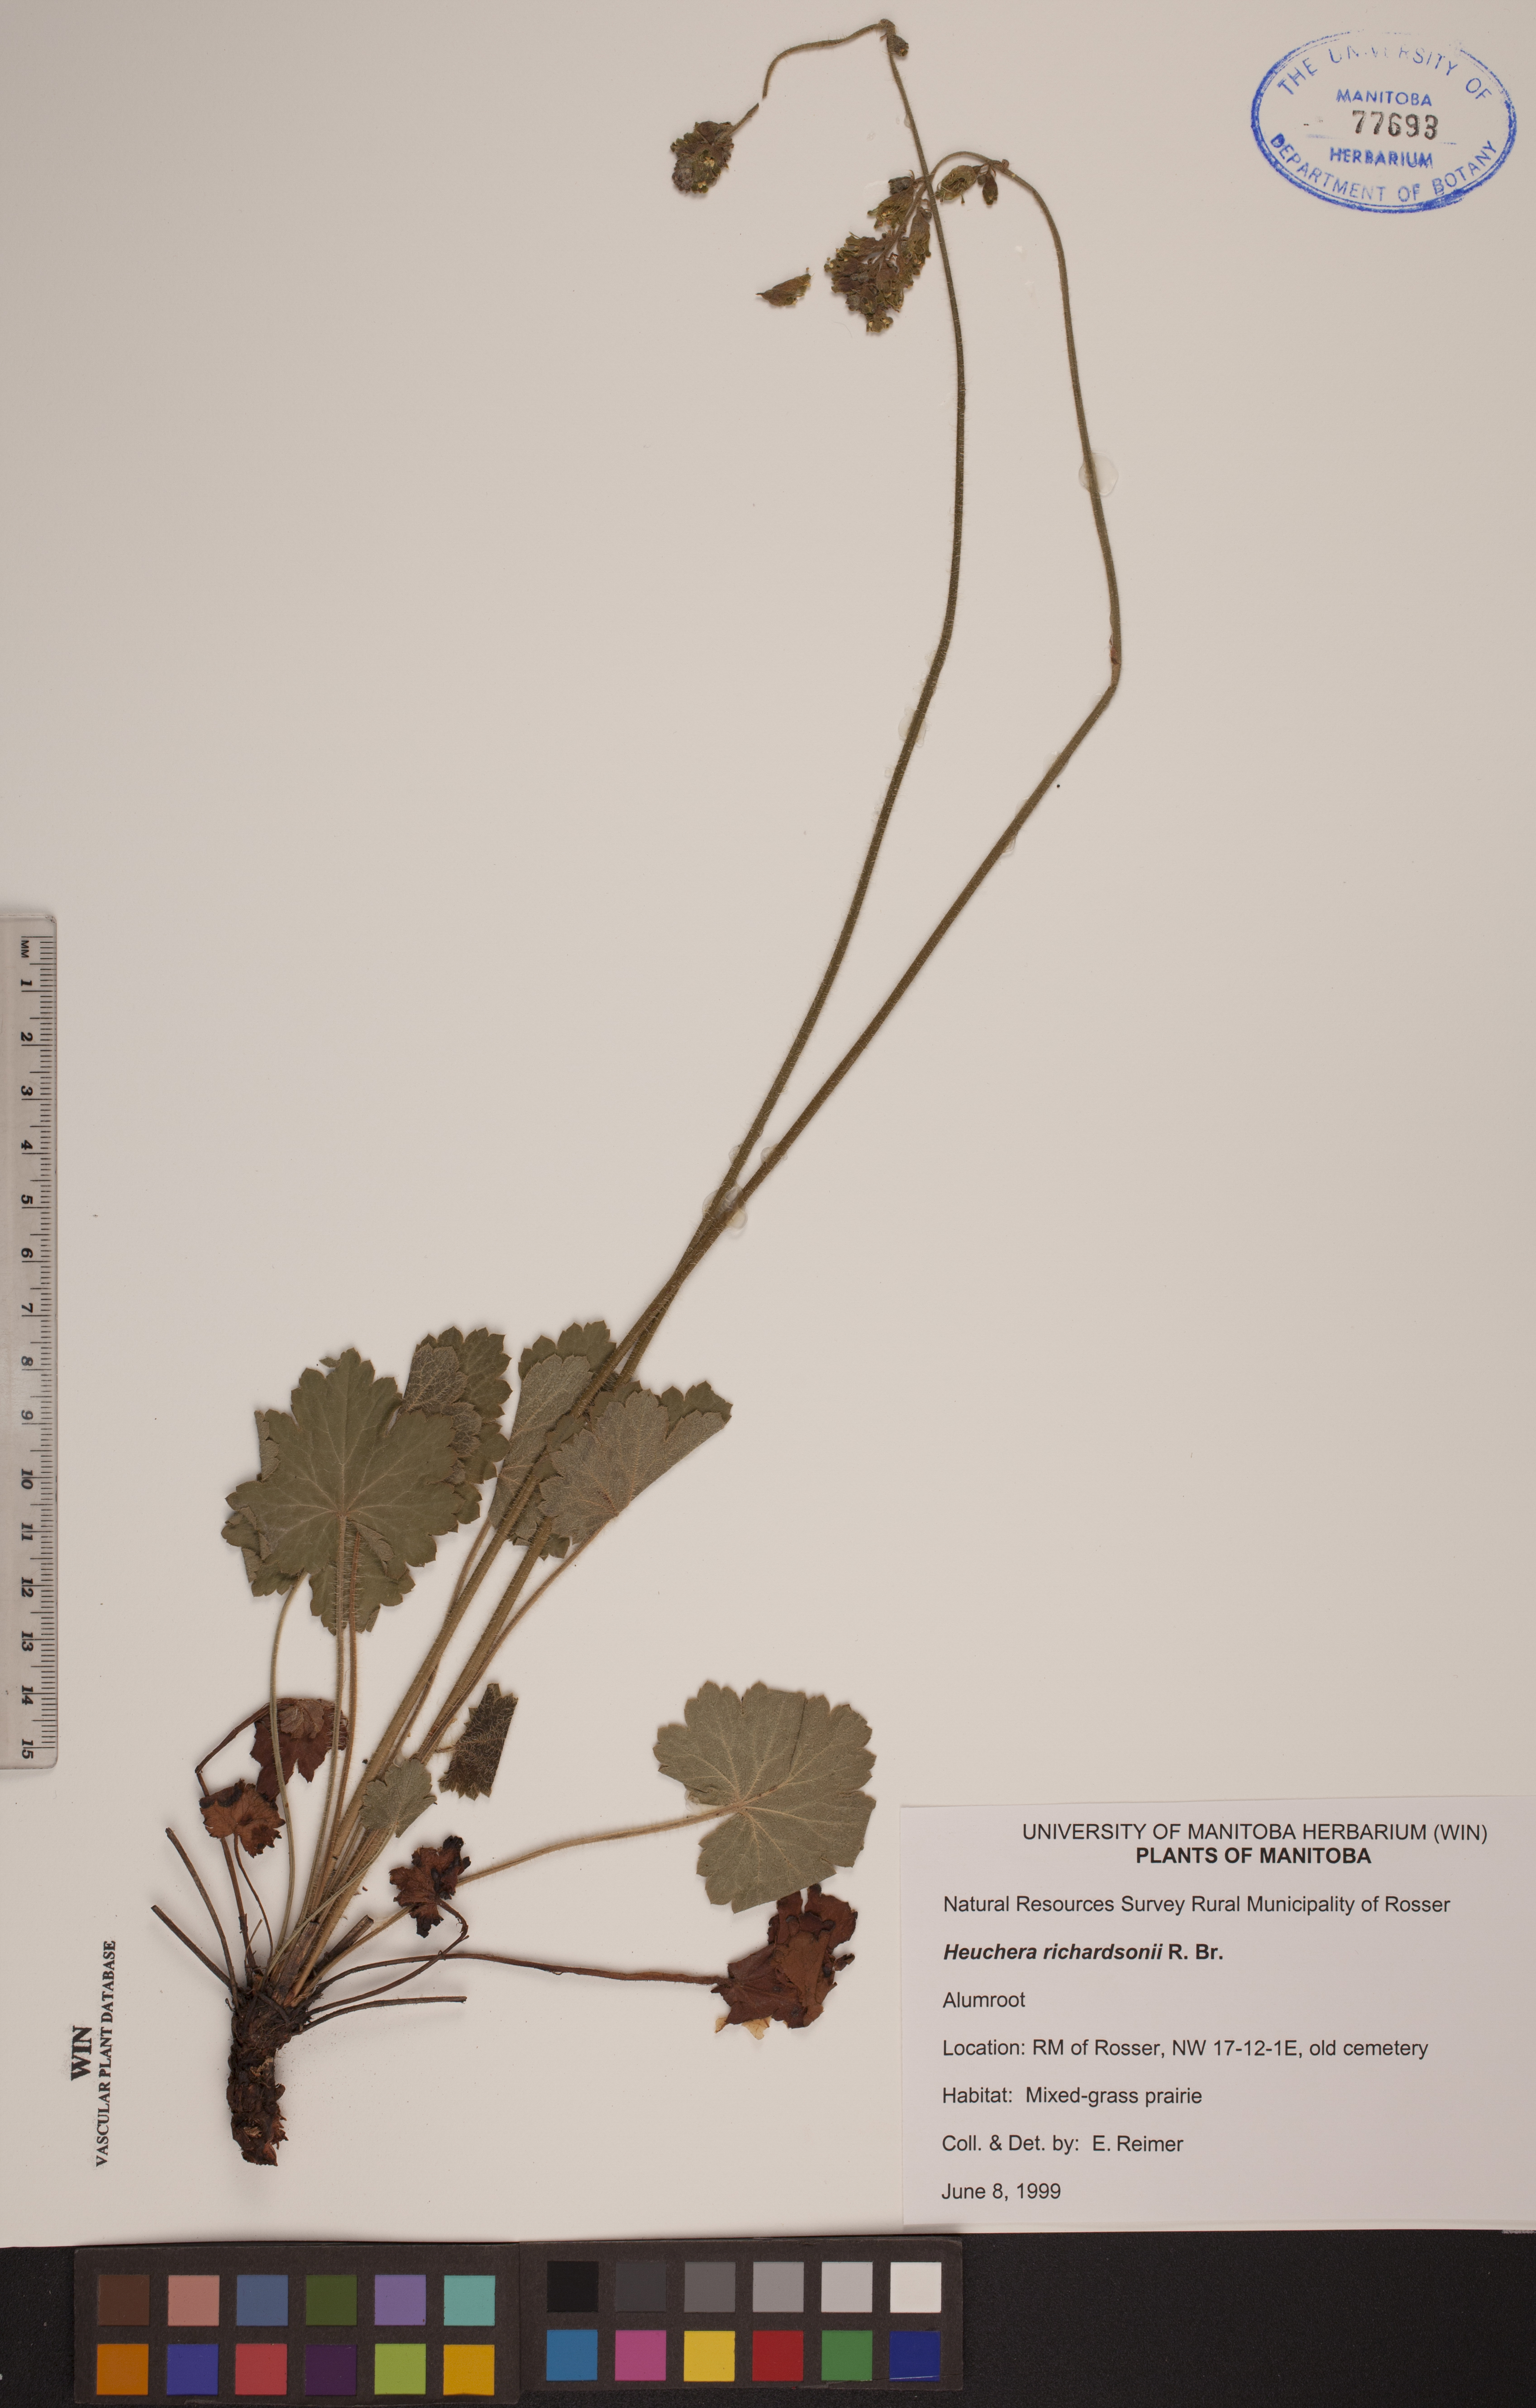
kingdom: Plantae
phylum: Tracheophyta
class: Magnoliopsida
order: Saxifragales
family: Saxifragaceae
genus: Heuchera
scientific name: Heuchera richardsonii
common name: Richardson's alumroot
